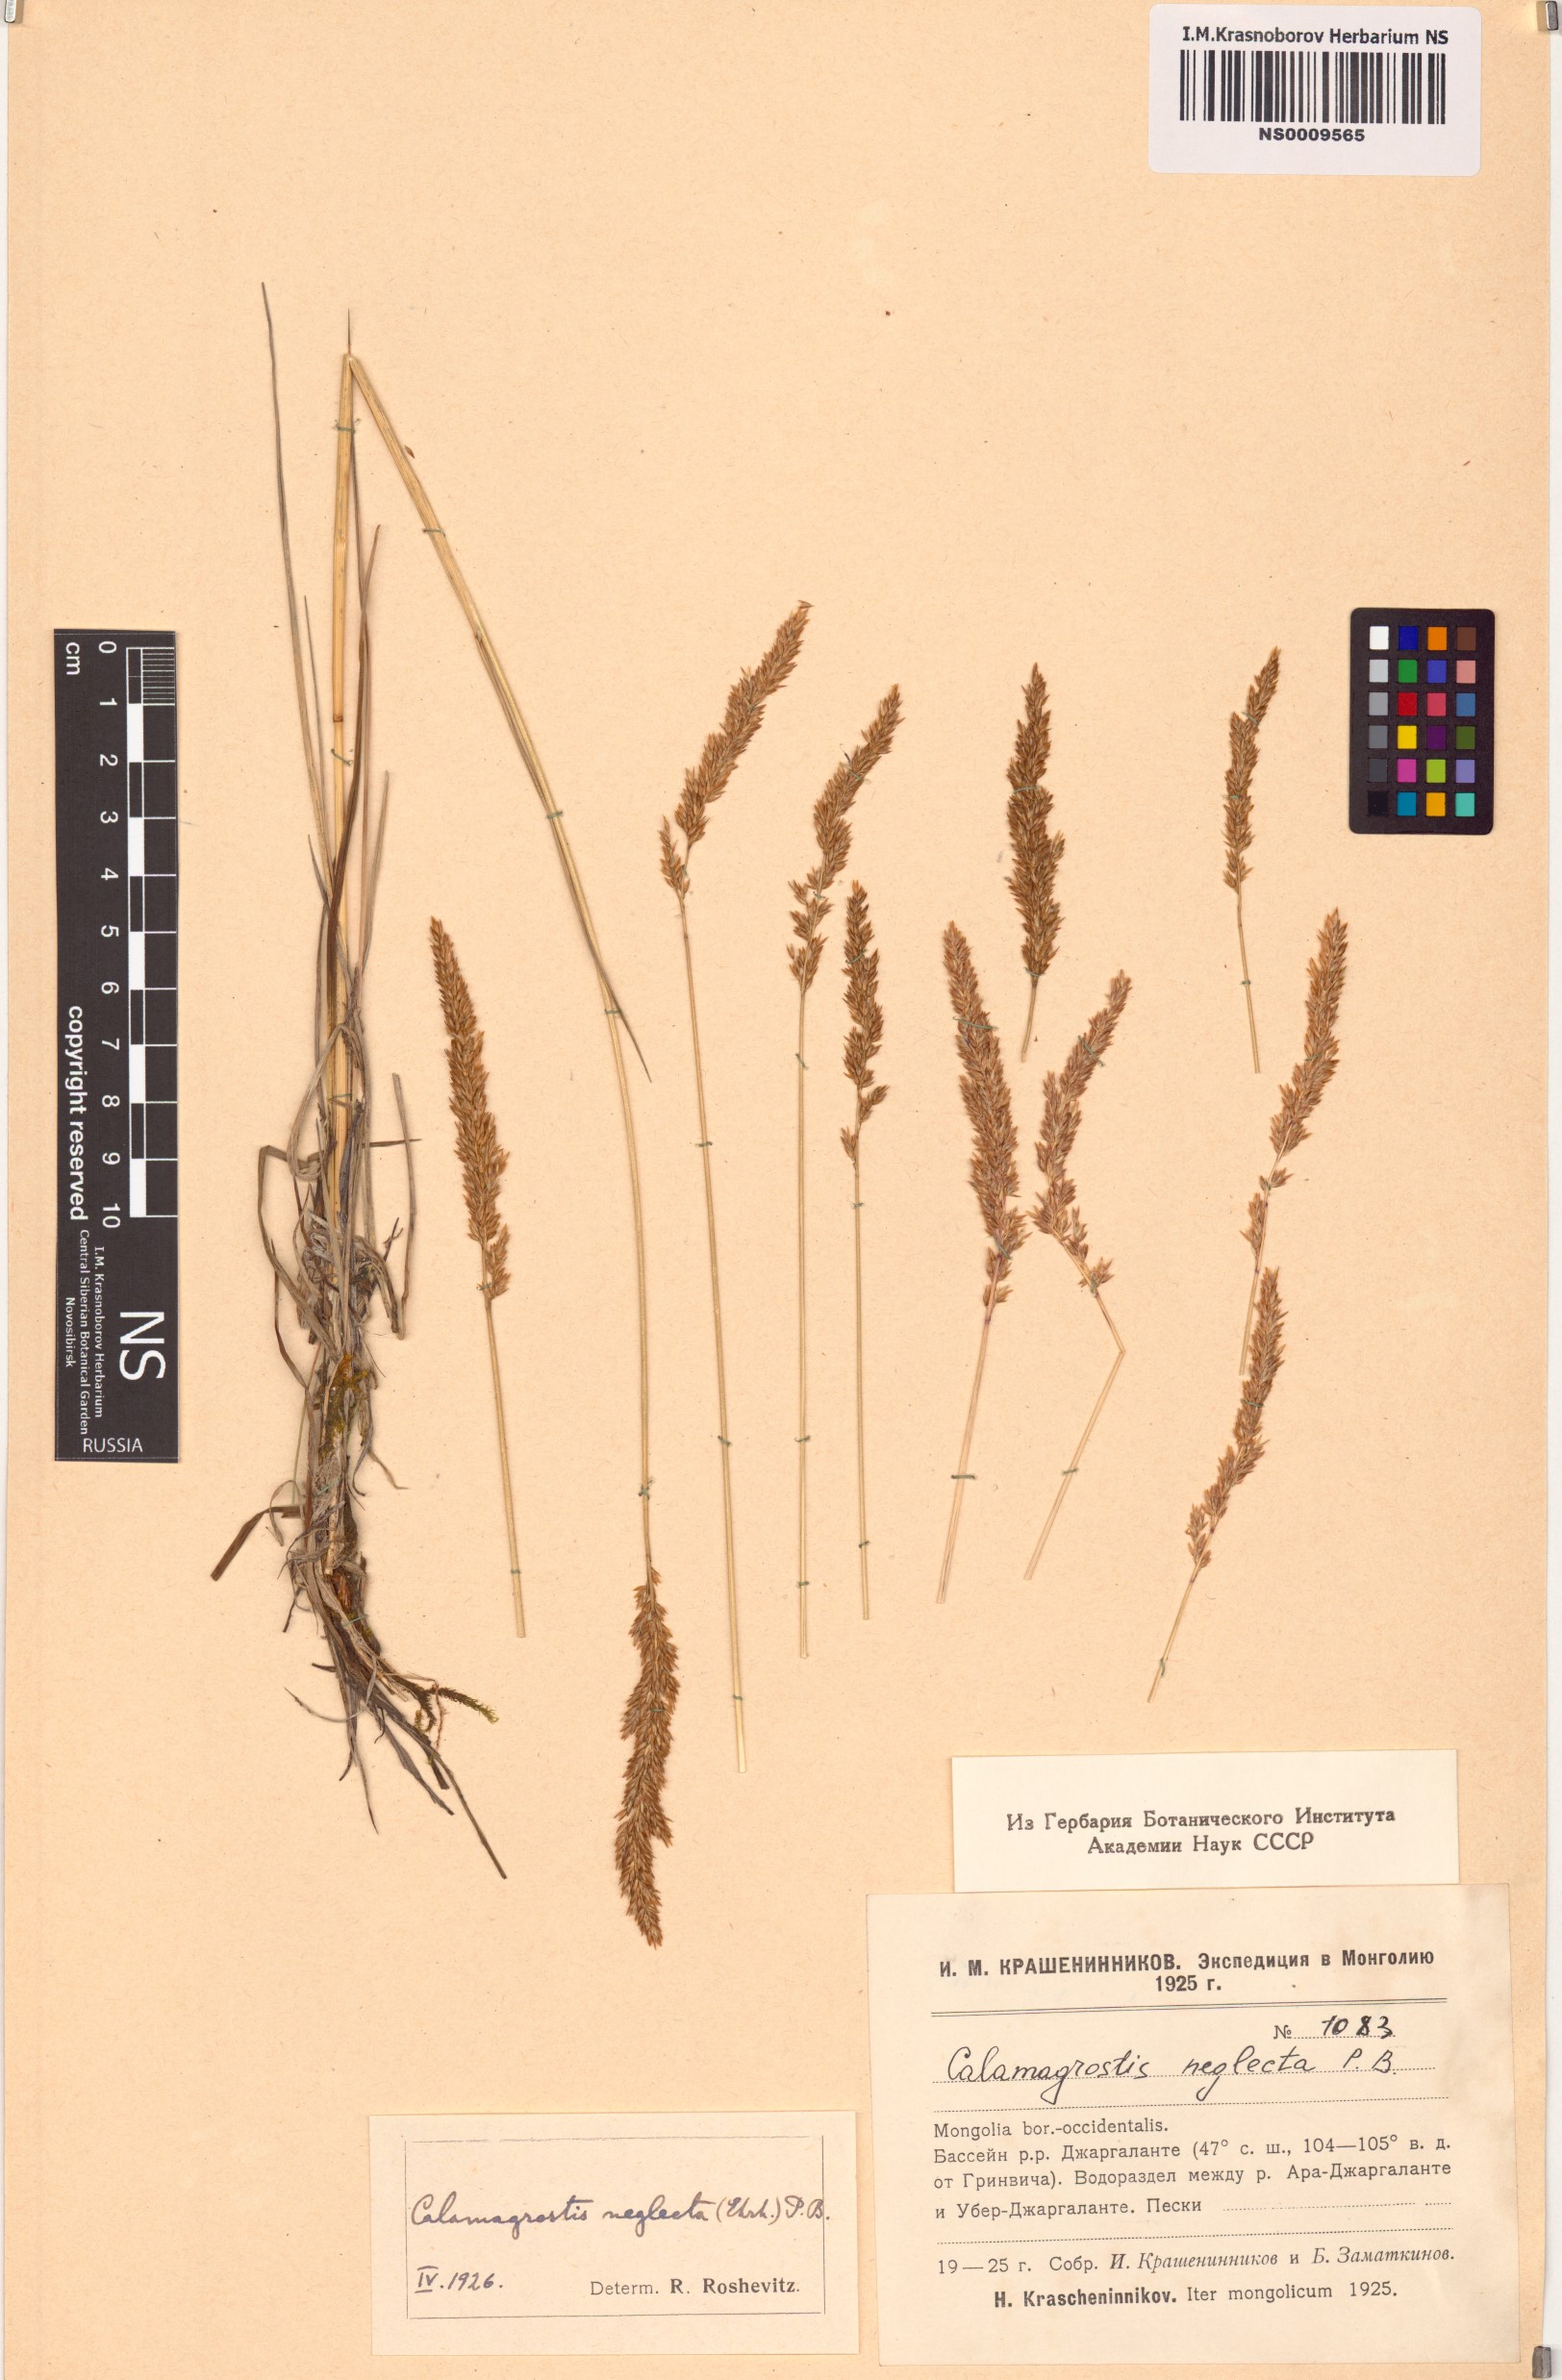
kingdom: Plantae
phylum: Tracheophyta
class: Liliopsida
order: Poales
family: Poaceae
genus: Achnatherum
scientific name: Achnatherum calamagrostis
